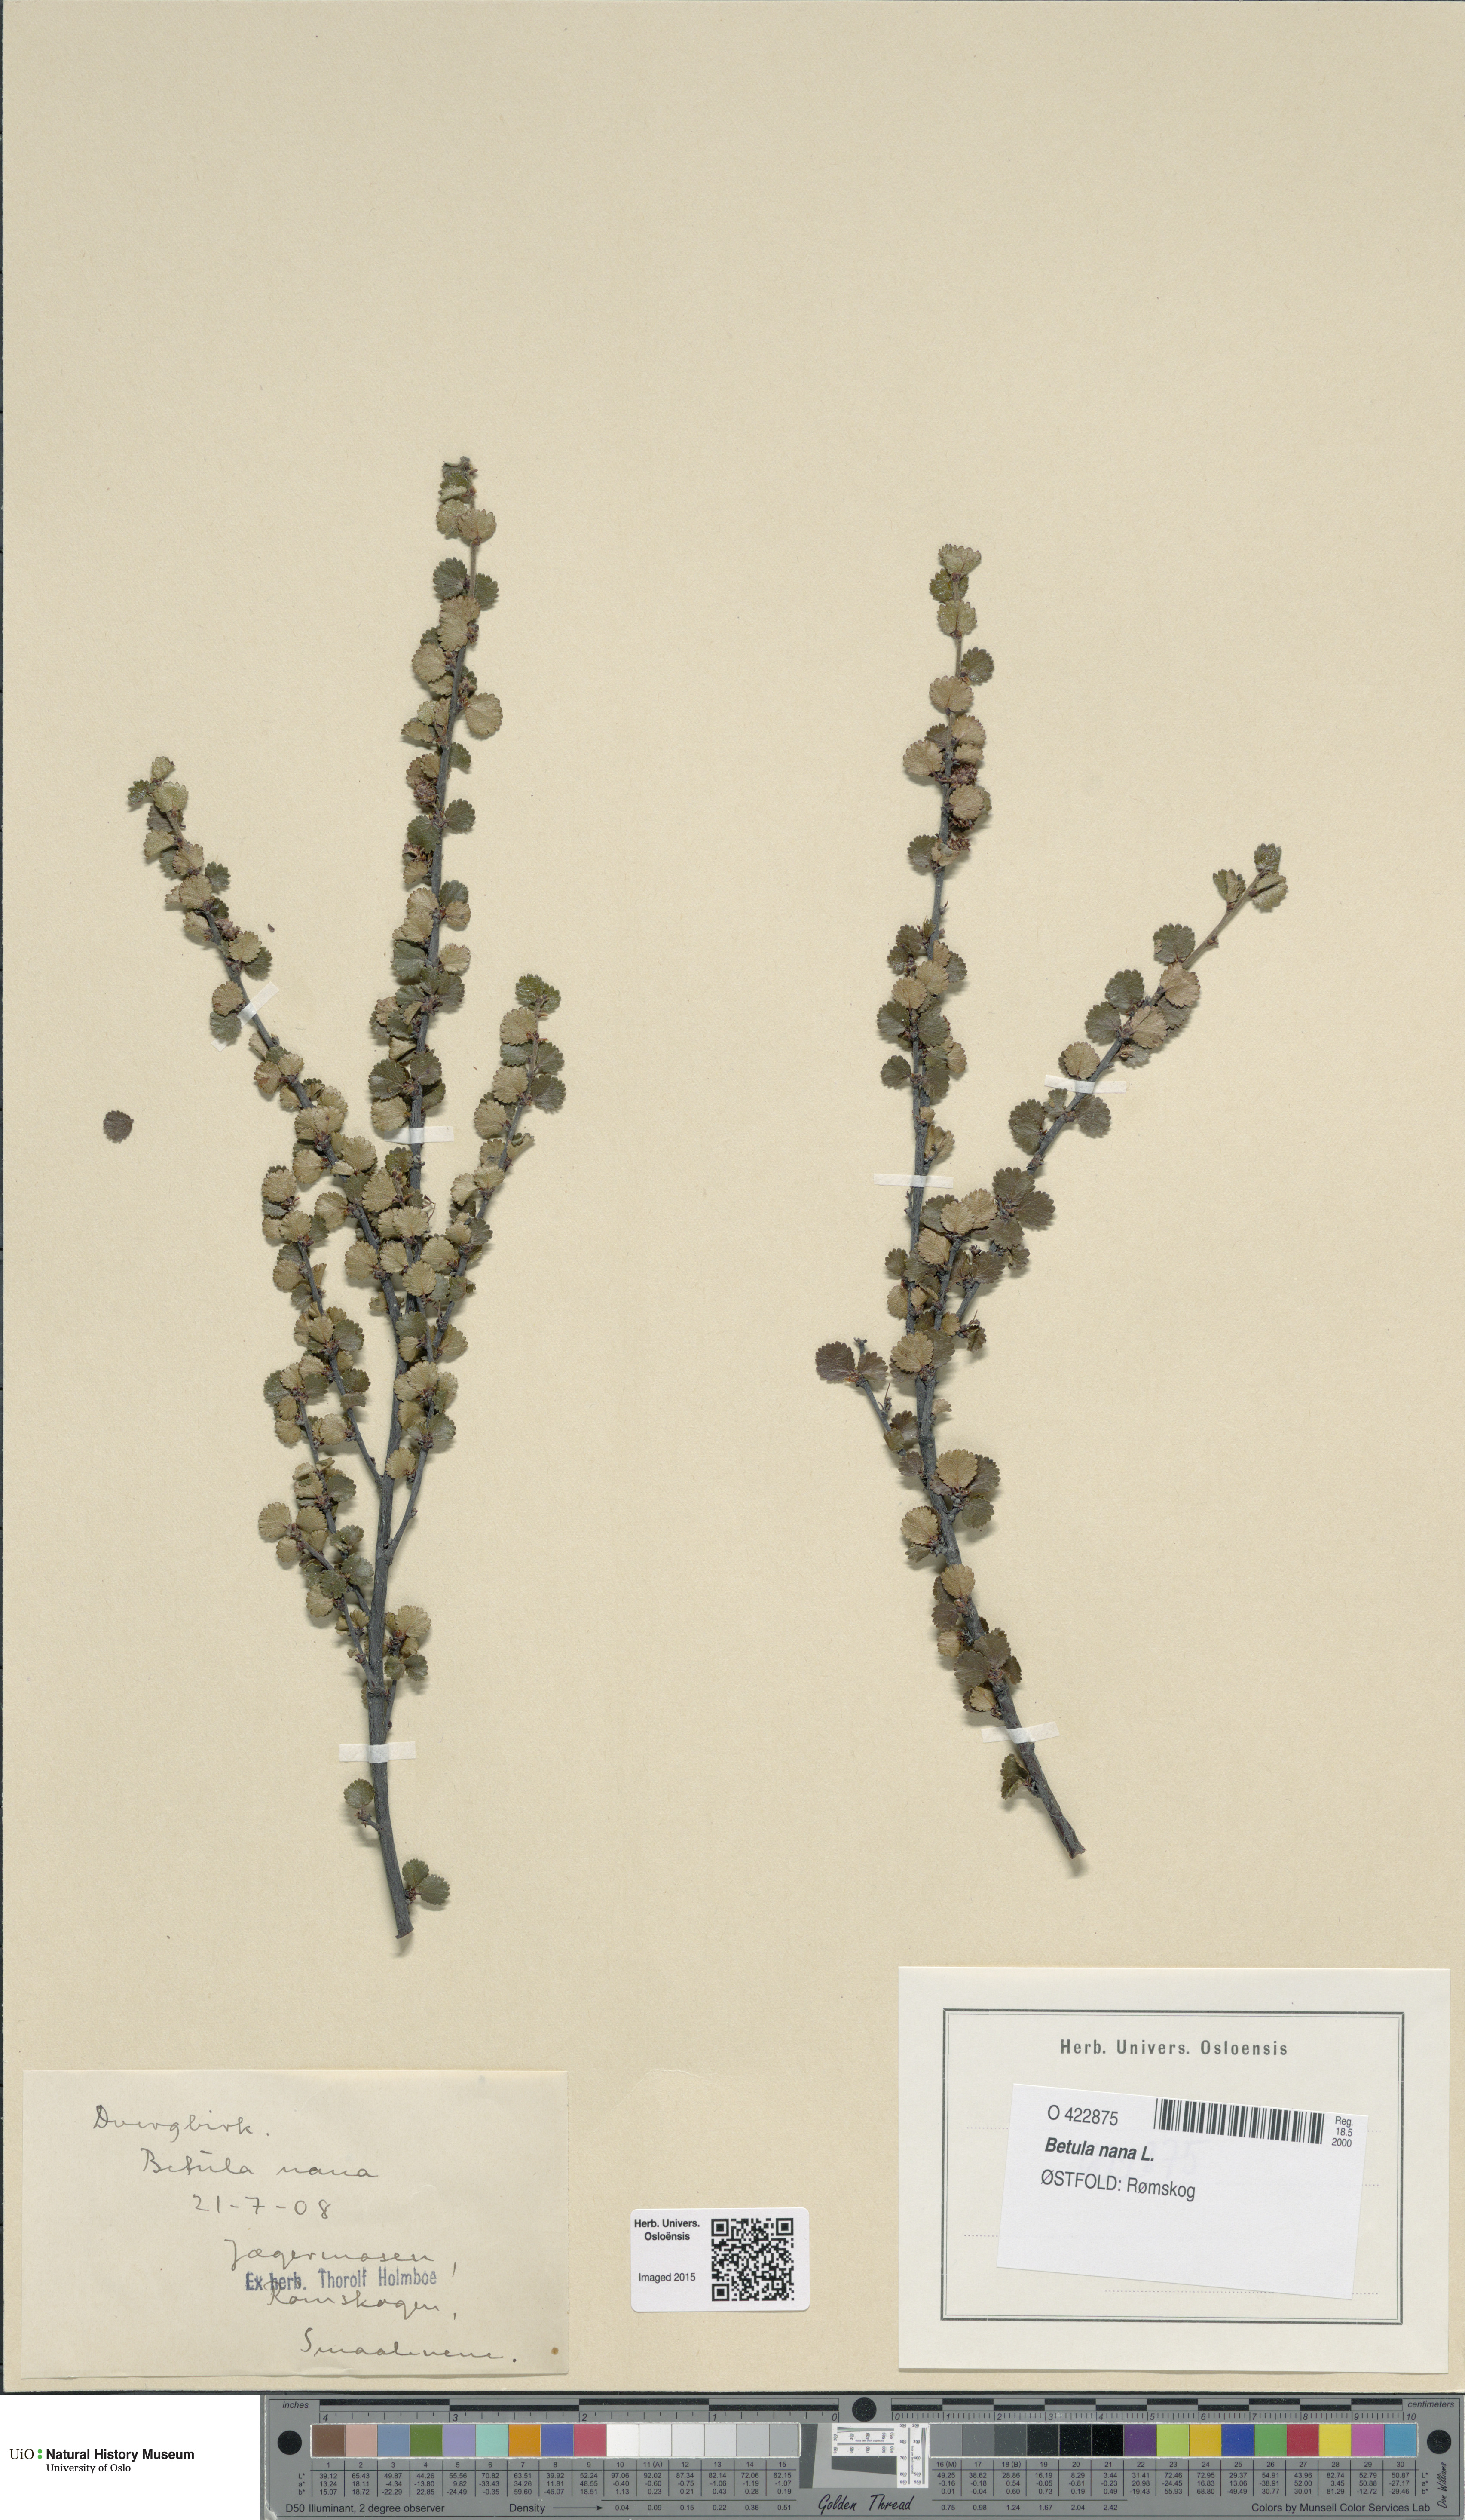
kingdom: Plantae
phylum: Tracheophyta
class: Magnoliopsida
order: Fagales
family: Betulaceae
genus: Betula
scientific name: Betula nana
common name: Arctic dwarf birch
